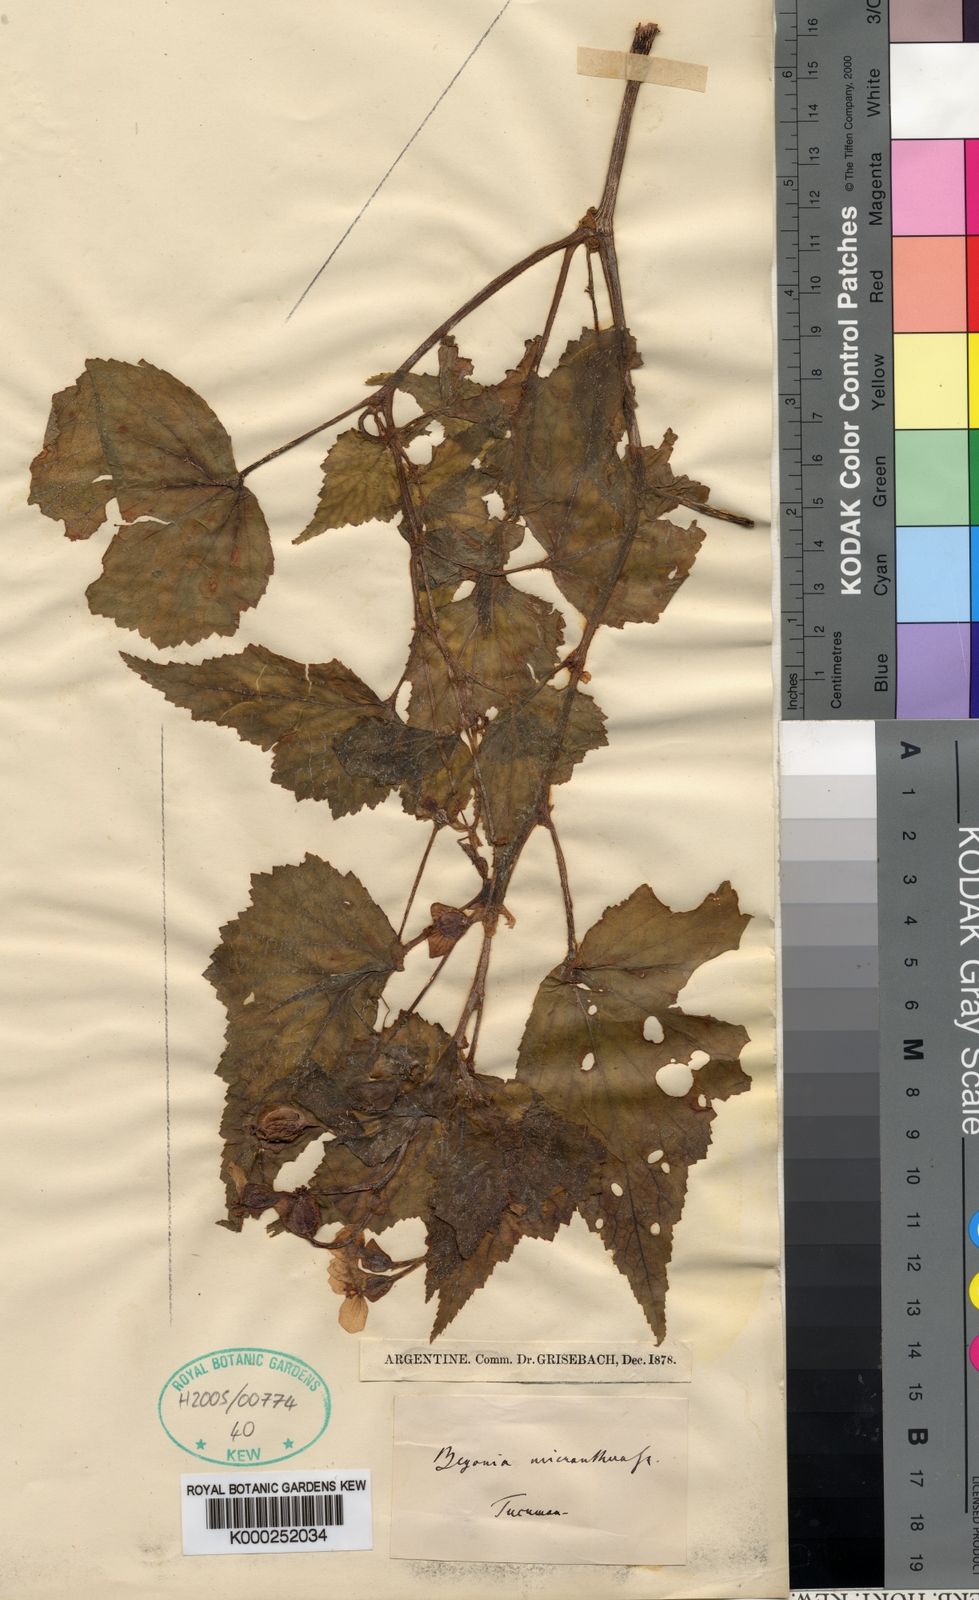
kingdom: Plantae
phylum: Tracheophyta
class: Magnoliopsida
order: Cucurbitales
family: Begoniaceae
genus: Begonia
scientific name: Begonia micranthera
